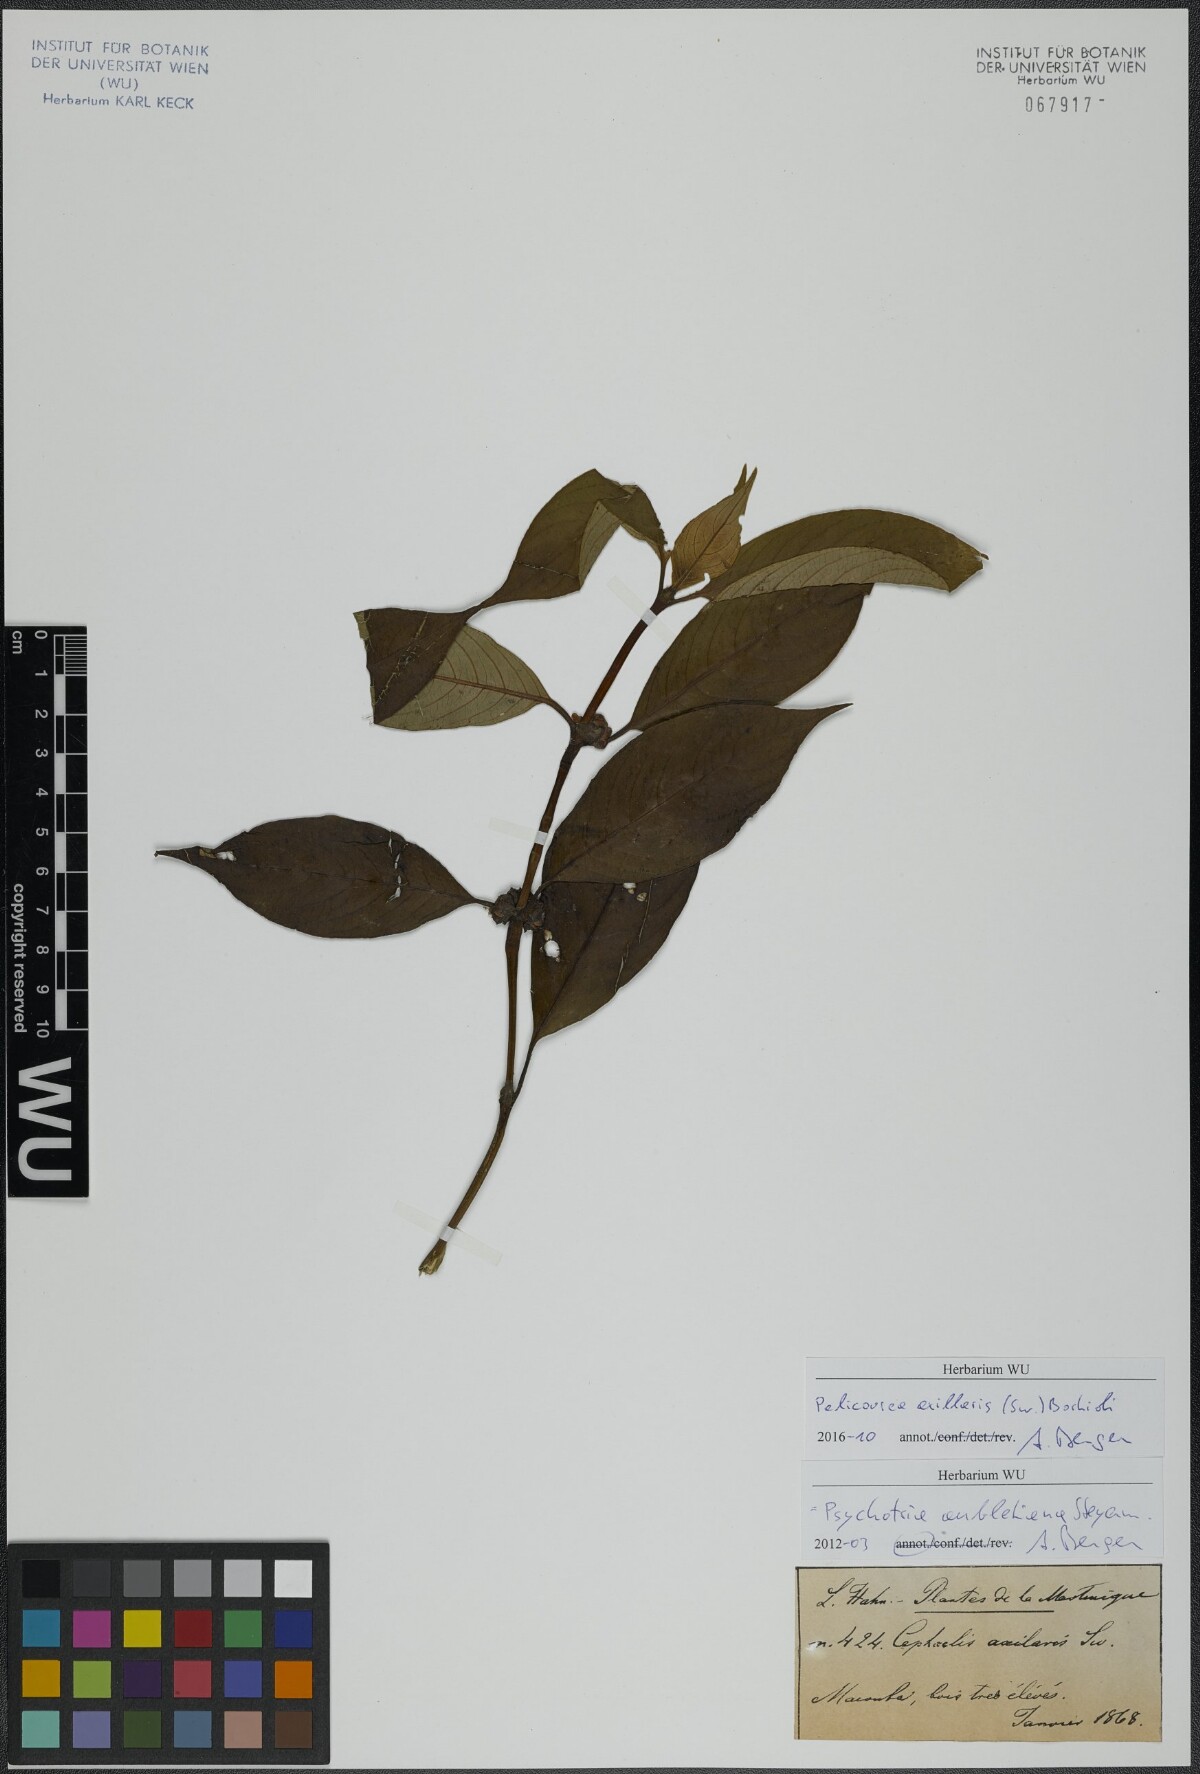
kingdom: Plantae
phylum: Tracheophyta
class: Magnoliopsida
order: Gentianales
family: Rubiaceae
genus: Palicourea
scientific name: Palicourea axillaris
